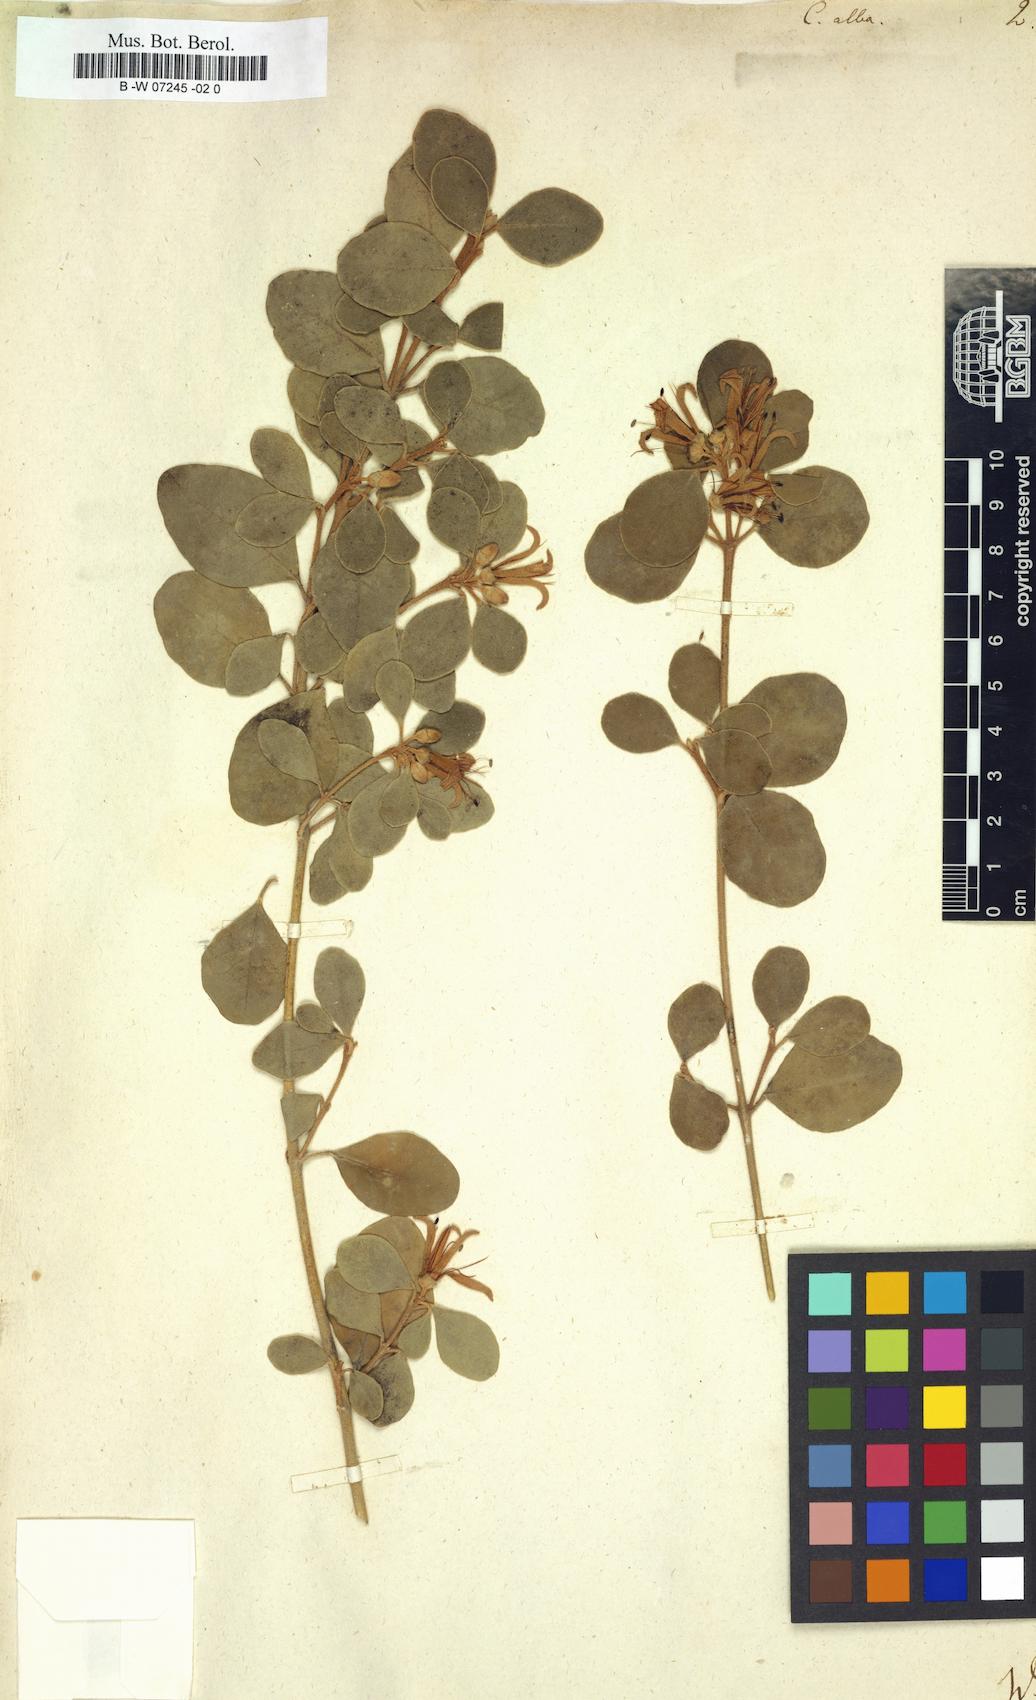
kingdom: Plantae
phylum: Tracheophyta
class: Magnoliopsida
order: Sapindales
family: Rutaceae
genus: Correa
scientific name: Correa alba
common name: White correa
